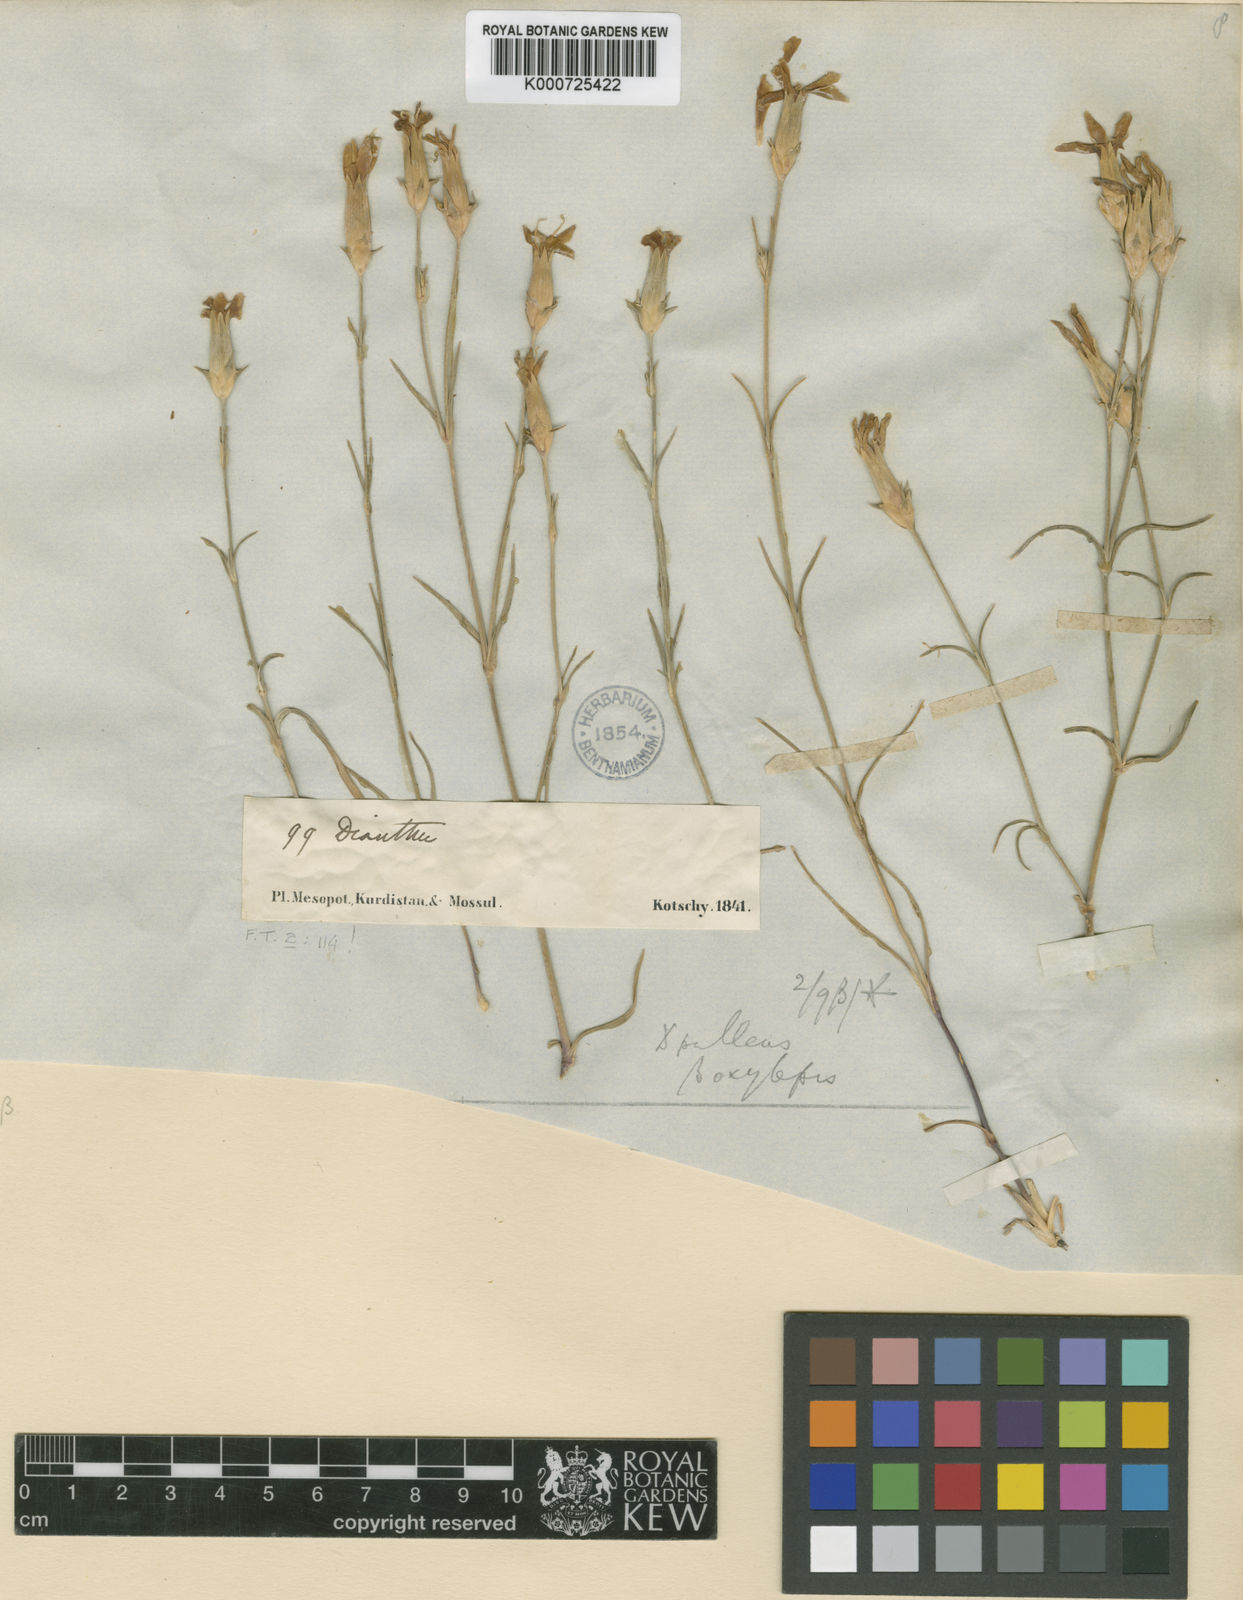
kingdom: Plantae
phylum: Tracheophyta
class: Magnoliopsida
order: Caryophyllales
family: Caryophyllaceae
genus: Dianthus
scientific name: Dianthus
